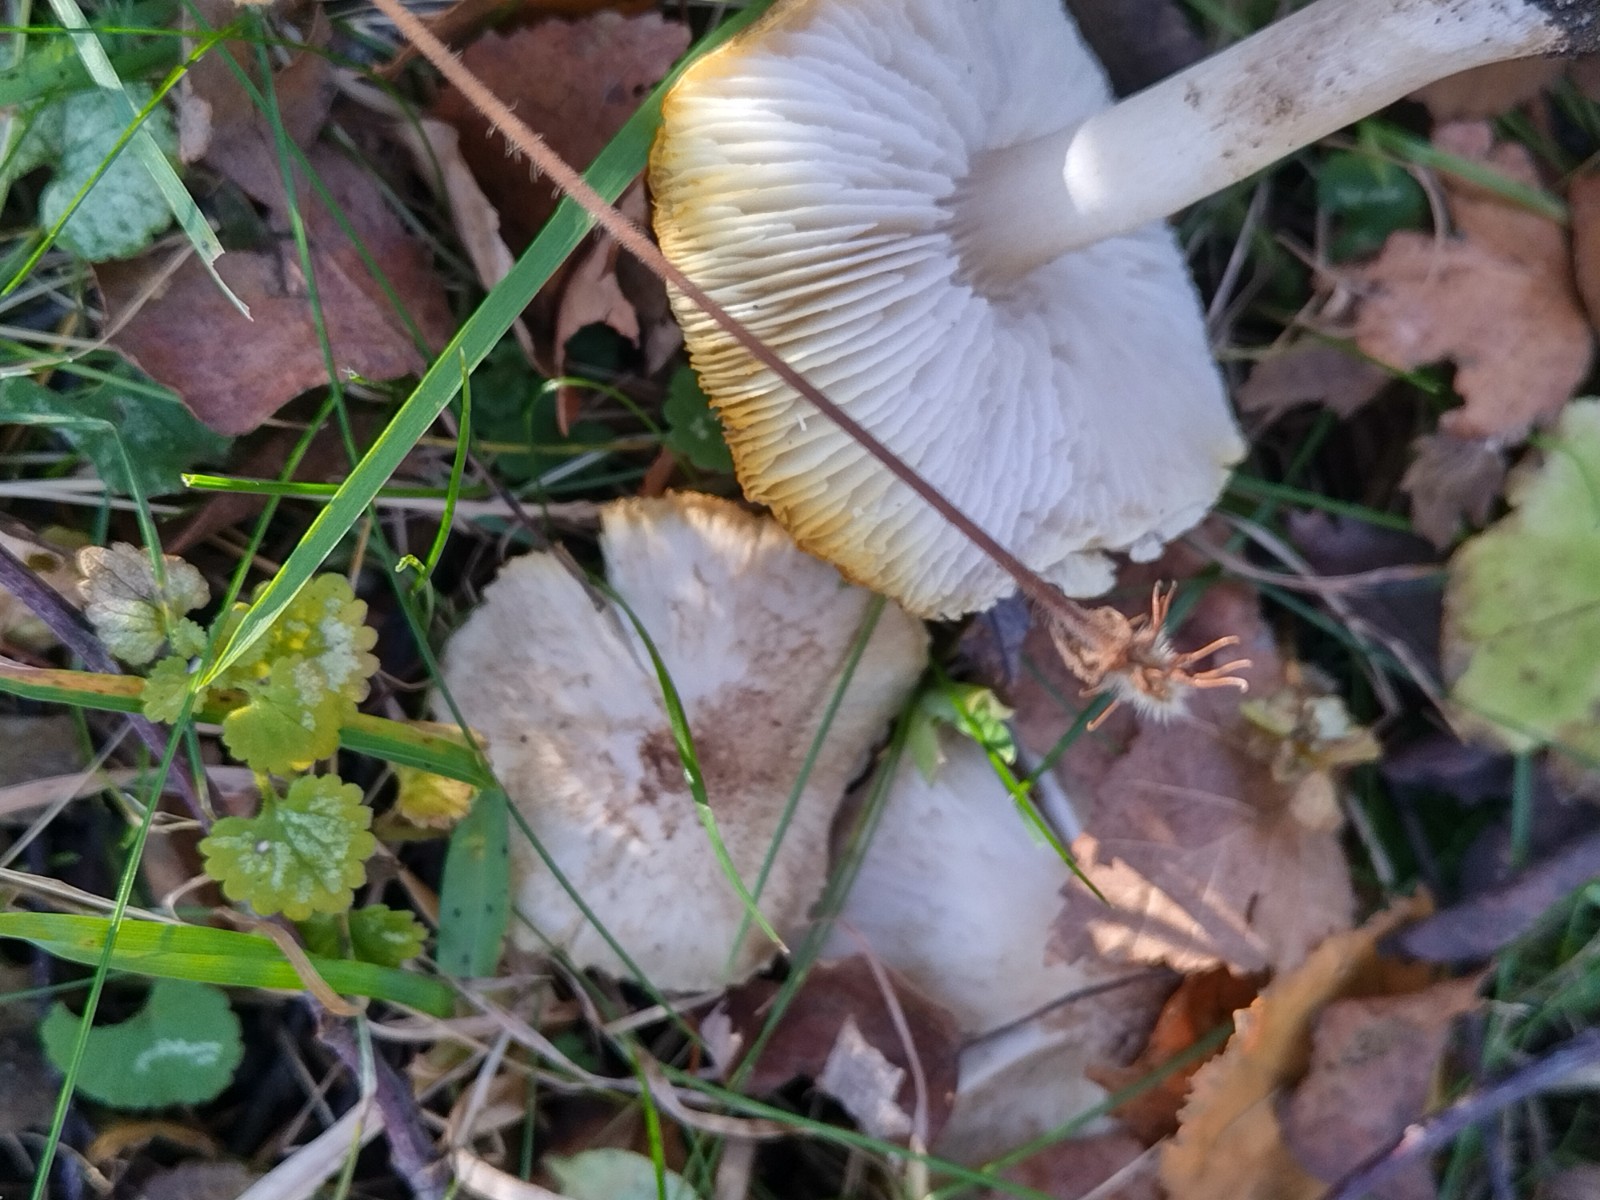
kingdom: Fungi
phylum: Basidiomycota
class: Agaricomycetes
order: Agaricales
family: Tricholomataceae
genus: Tricholoma
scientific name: Tricholoma scalpturatum
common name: gulplettet ridderhat
